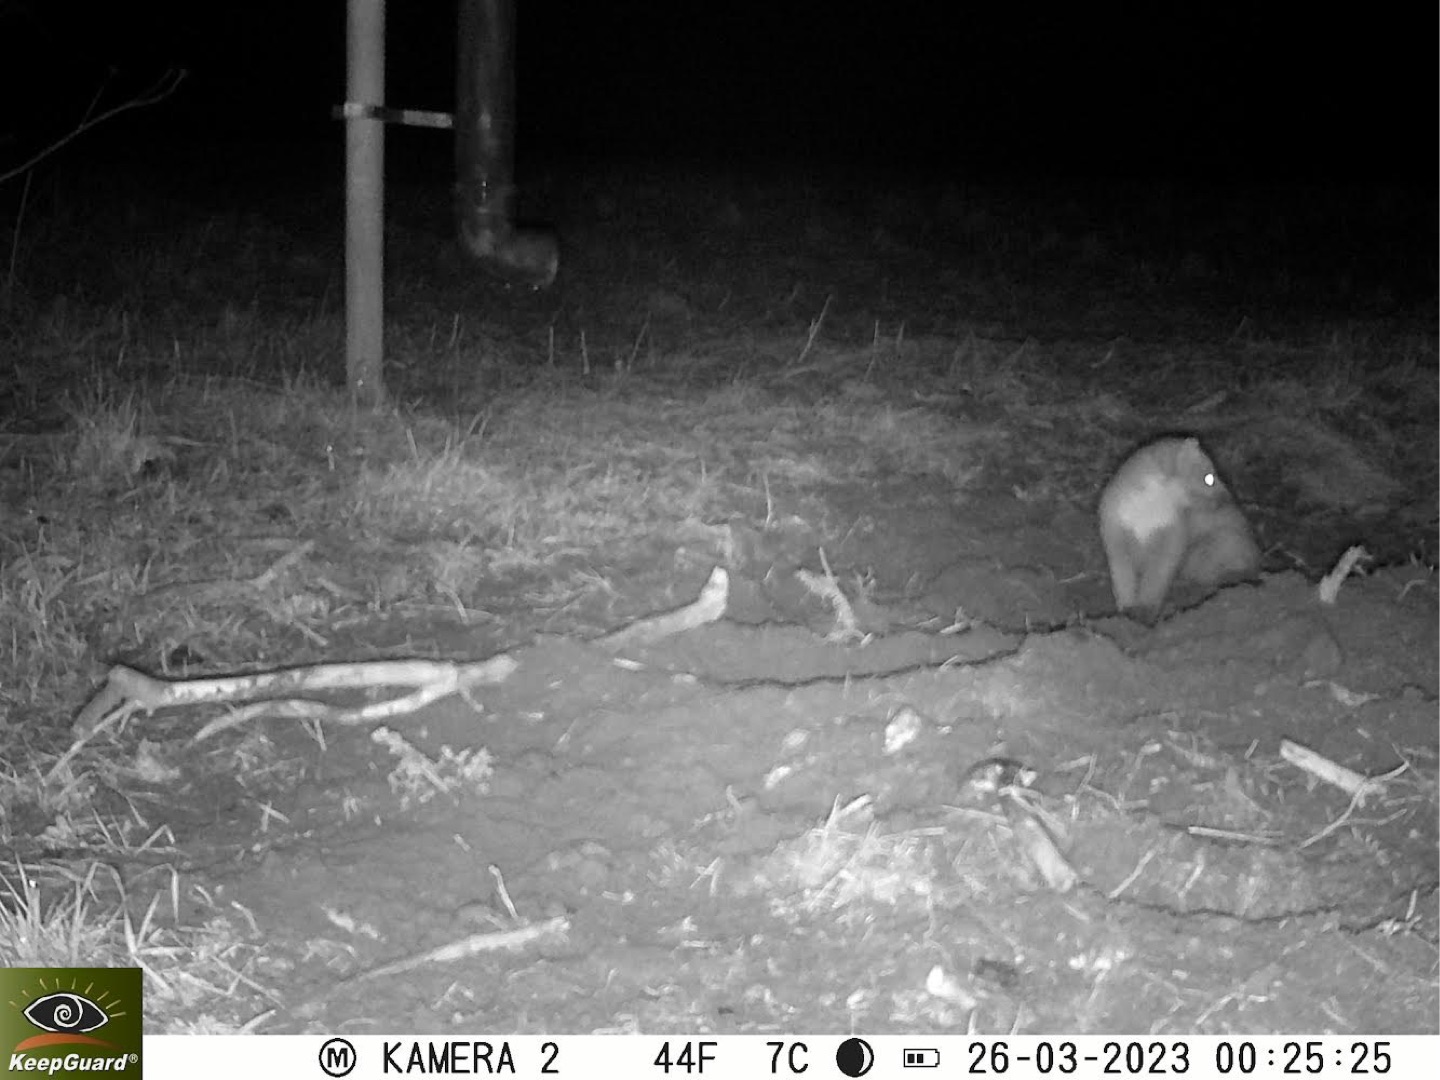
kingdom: Animalia
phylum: Chordata
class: Mammalia
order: Carnivora
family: Mustelidae
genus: Martes
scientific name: Martes martes
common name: Skovmår
